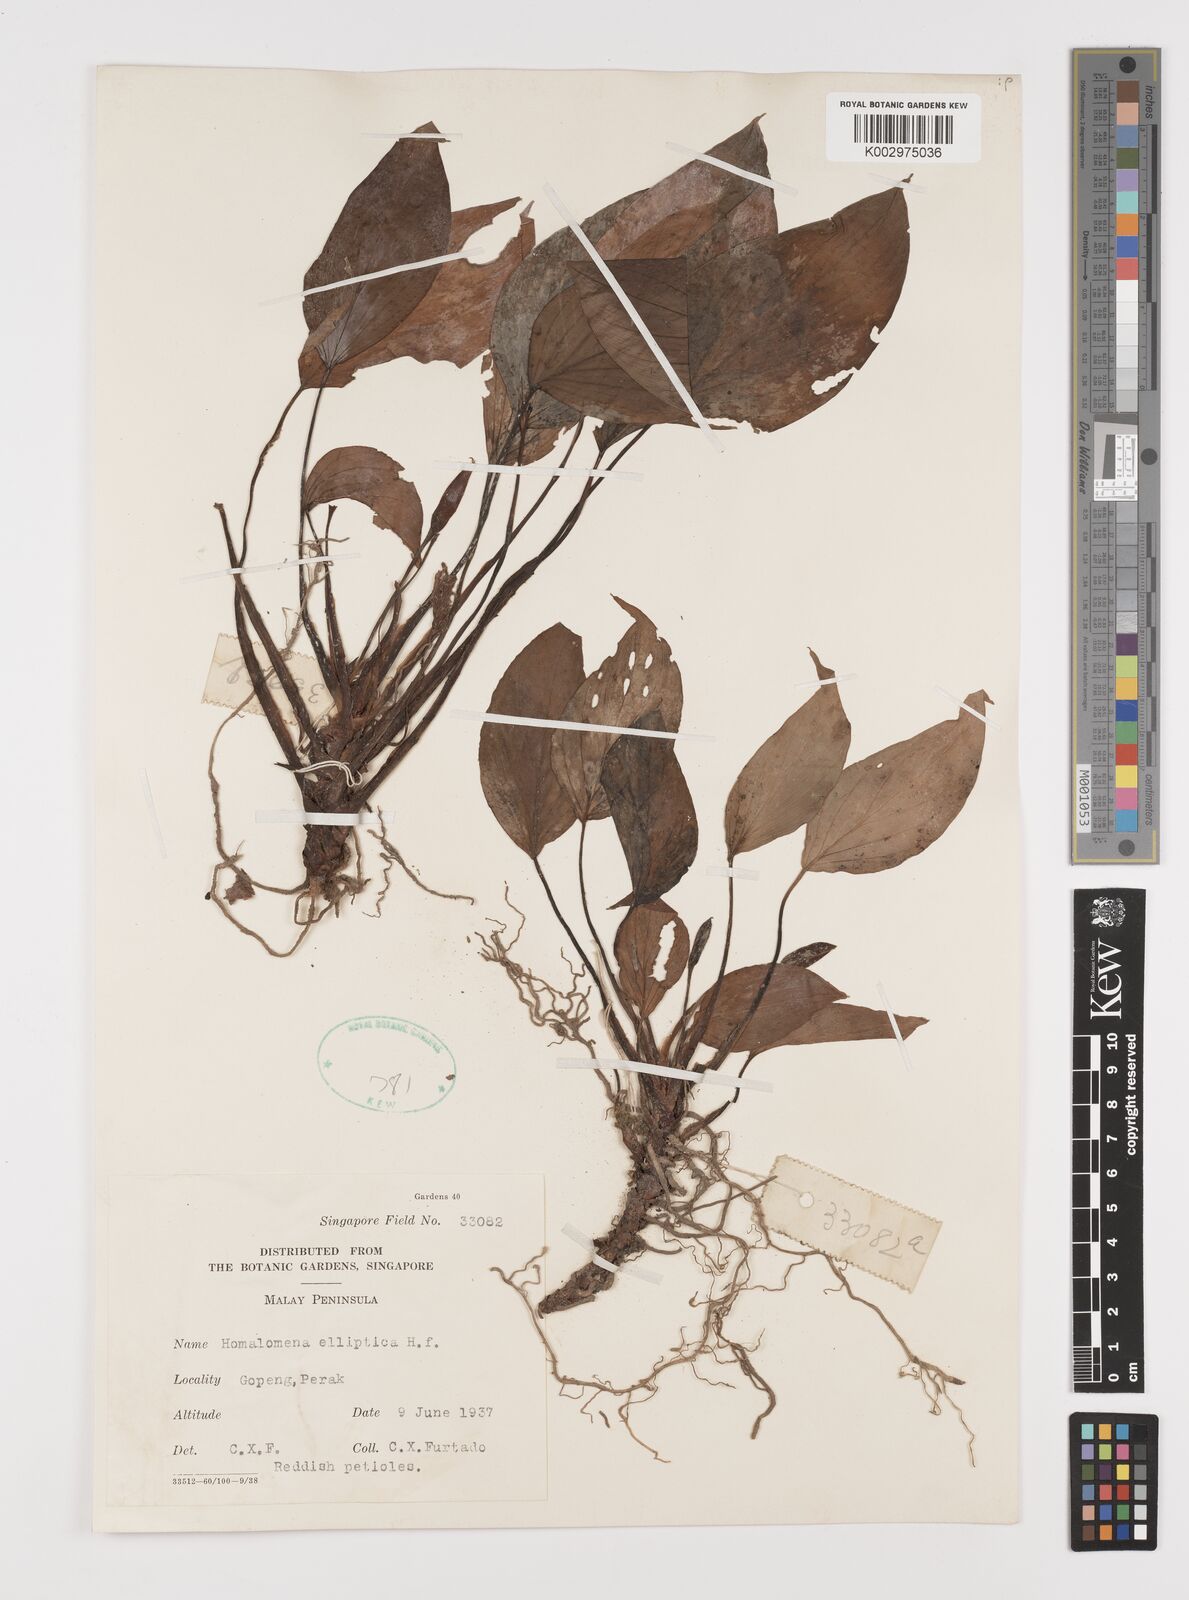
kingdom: Plantae
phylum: Tracheophyta
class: Liliopsida
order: Alismatales
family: Araceae
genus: Homalomena
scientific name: Homalomena griffithii
